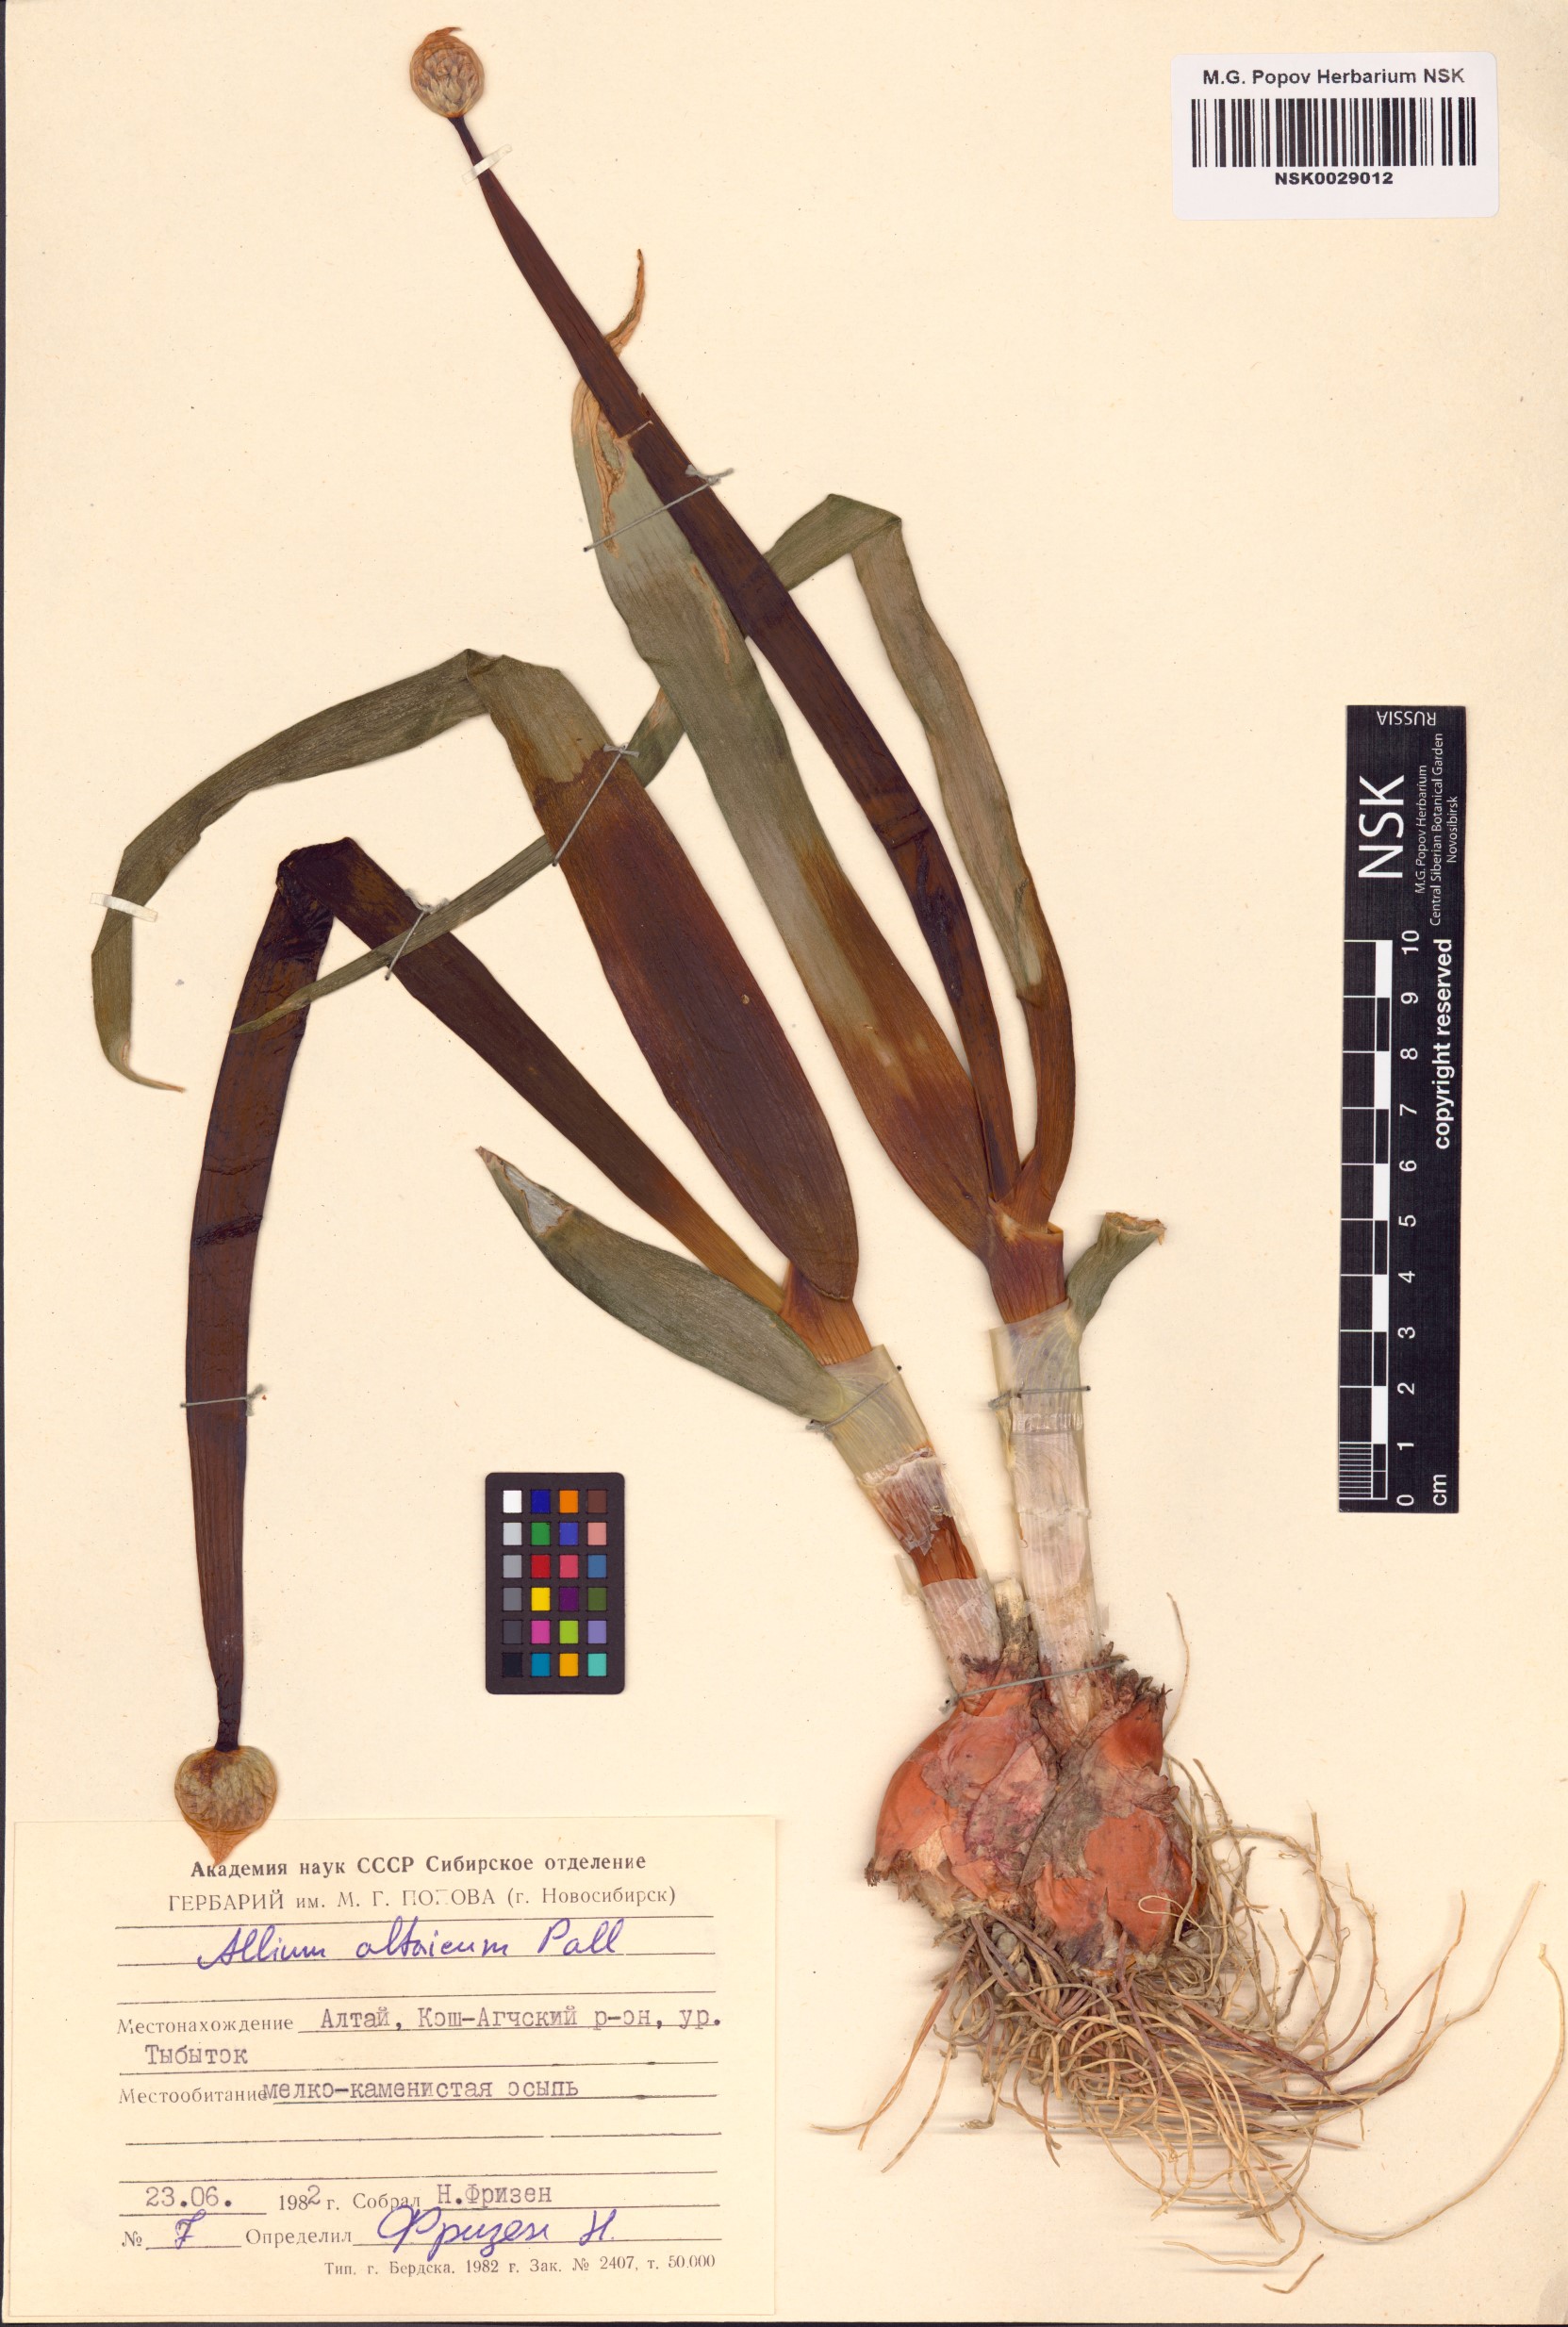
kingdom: Plantae
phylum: Tracheophyta
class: Liliopsida
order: Asparagales
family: Amaryllidaceae
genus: Allium
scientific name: Allium altaicum
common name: Altai onion
